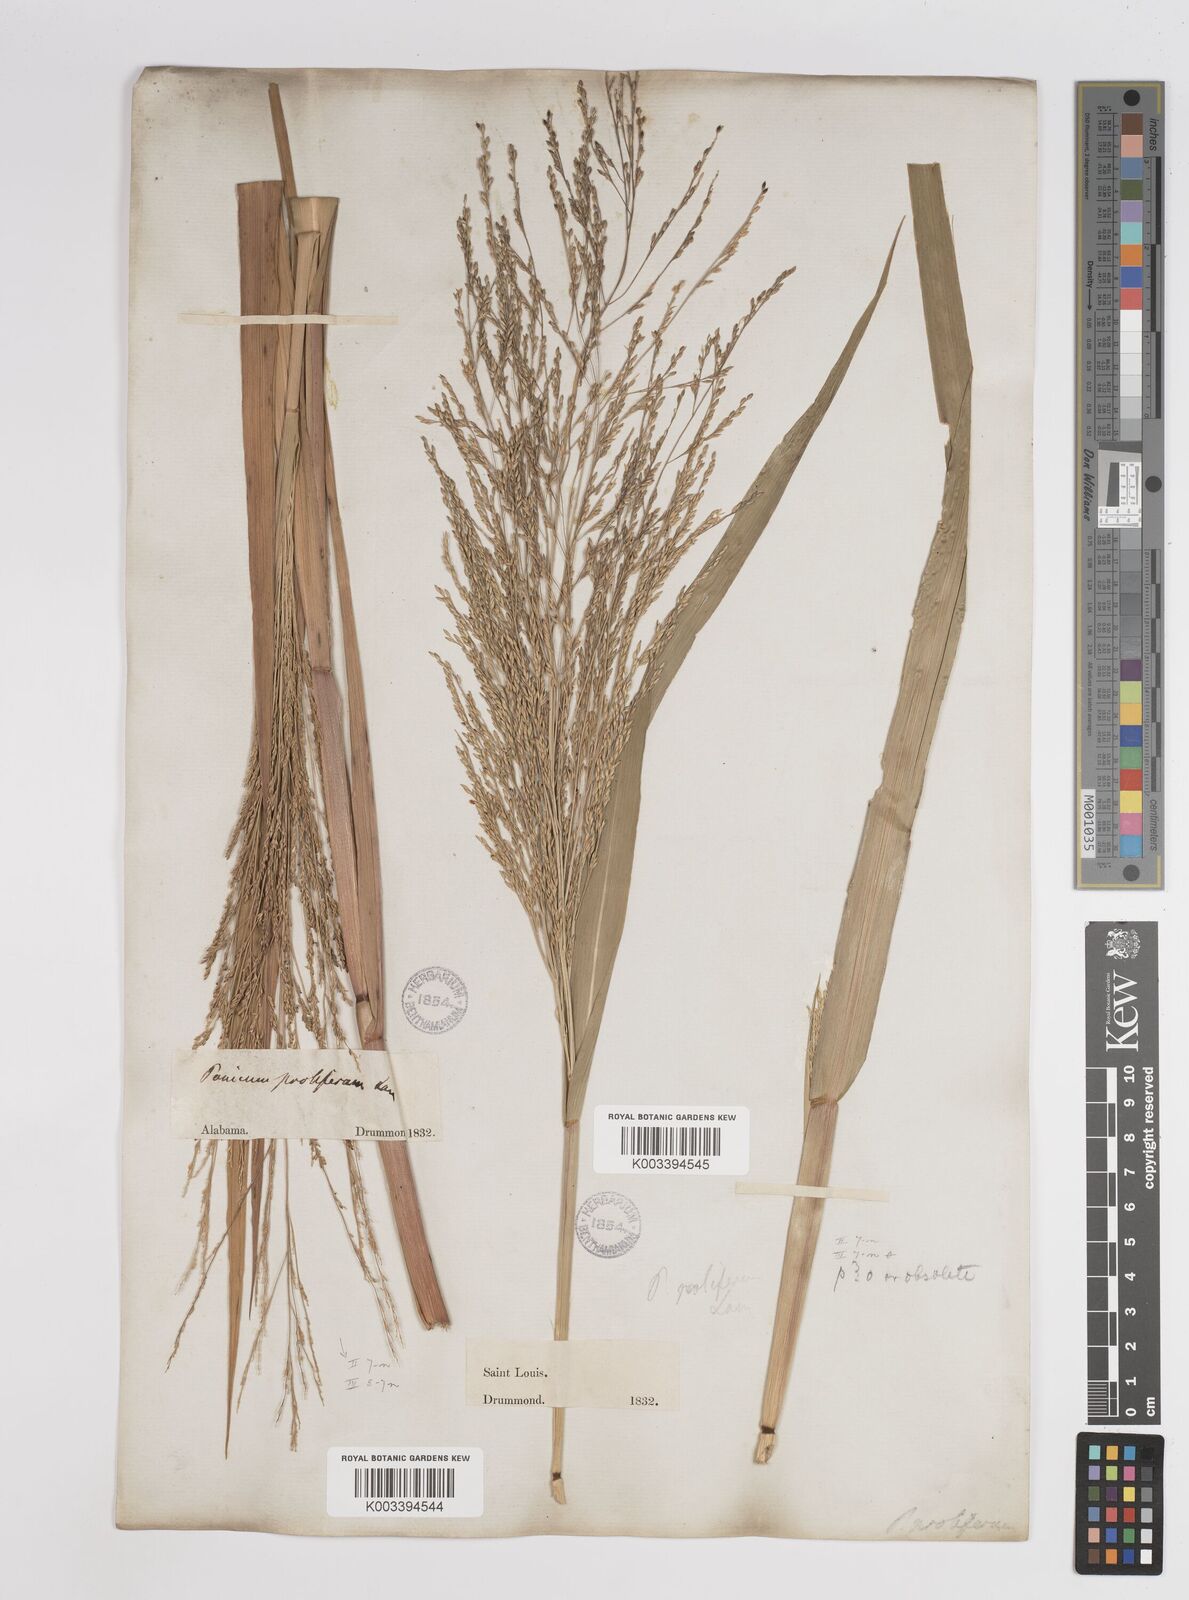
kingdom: Plantae
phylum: Tracheophyta
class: Liliopsida
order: Poales
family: Poaceae
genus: Panicum
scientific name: Panicum bartowense
